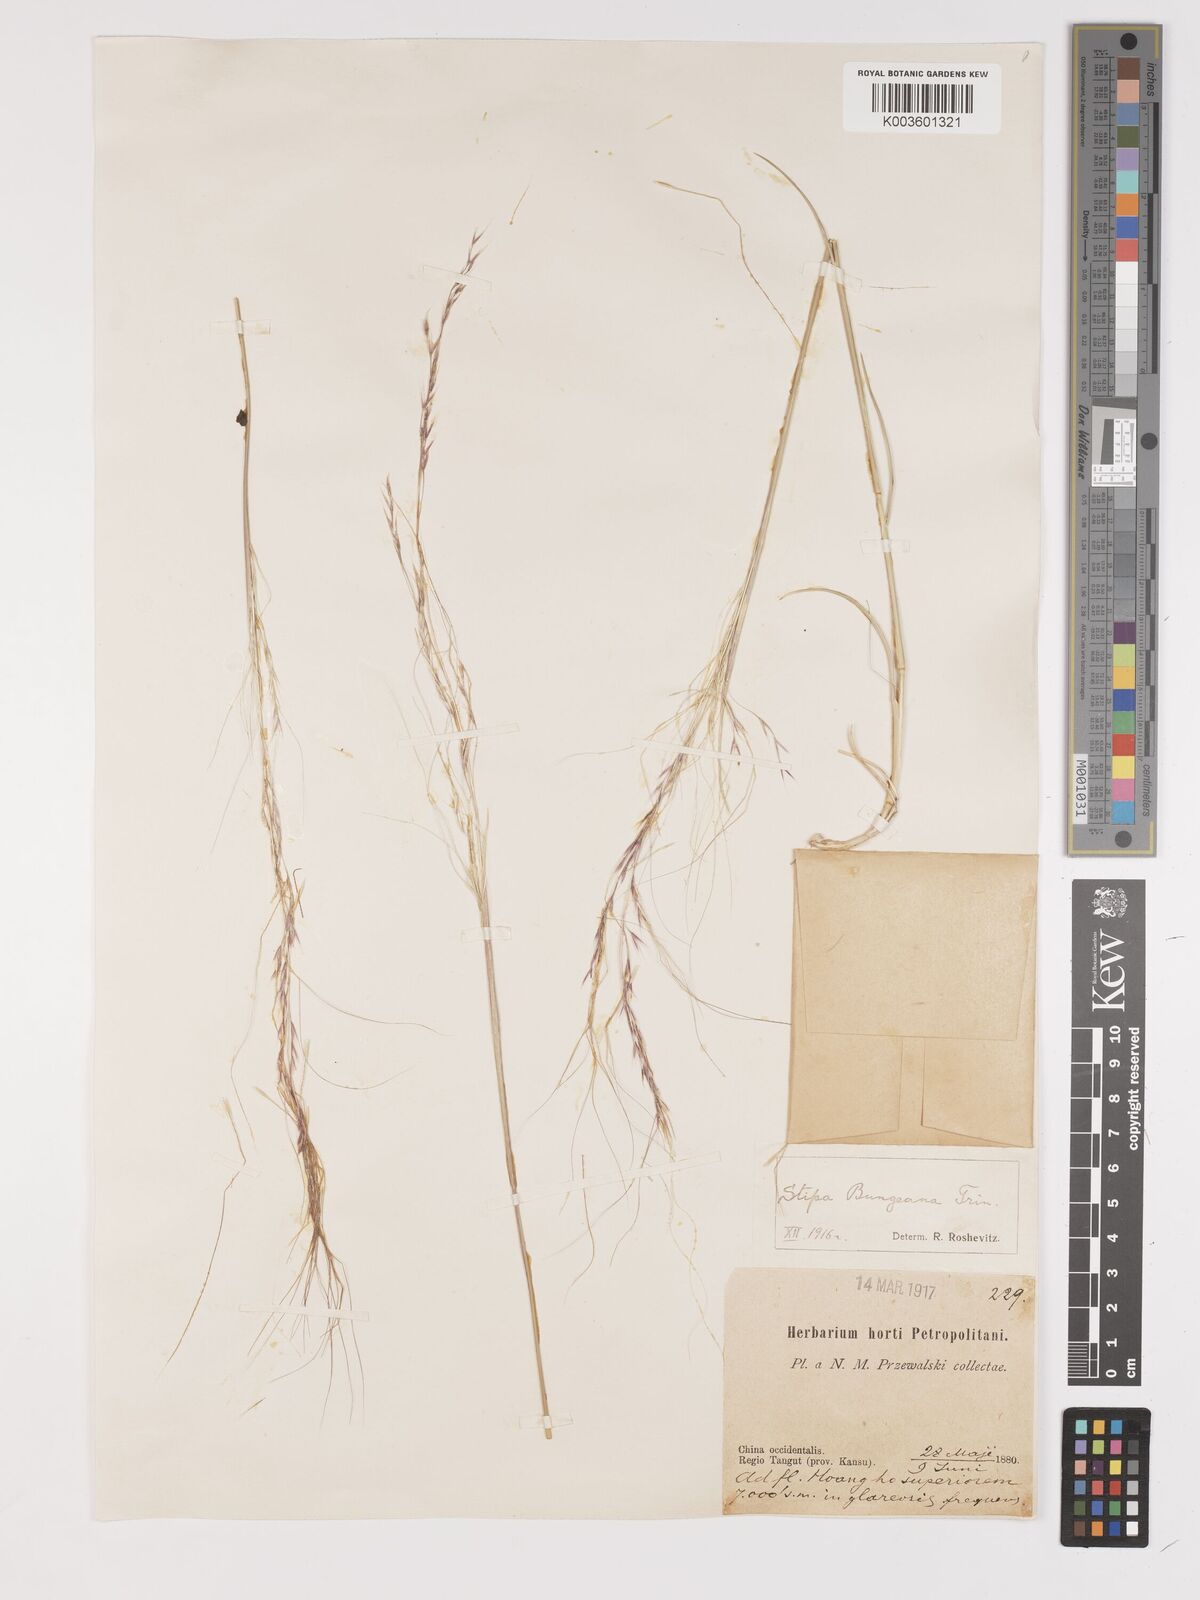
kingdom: Plantae
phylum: Tracheophyta
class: Liliopsida
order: Poales
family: Poaceae
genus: Stipa
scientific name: Stipa bungeana
